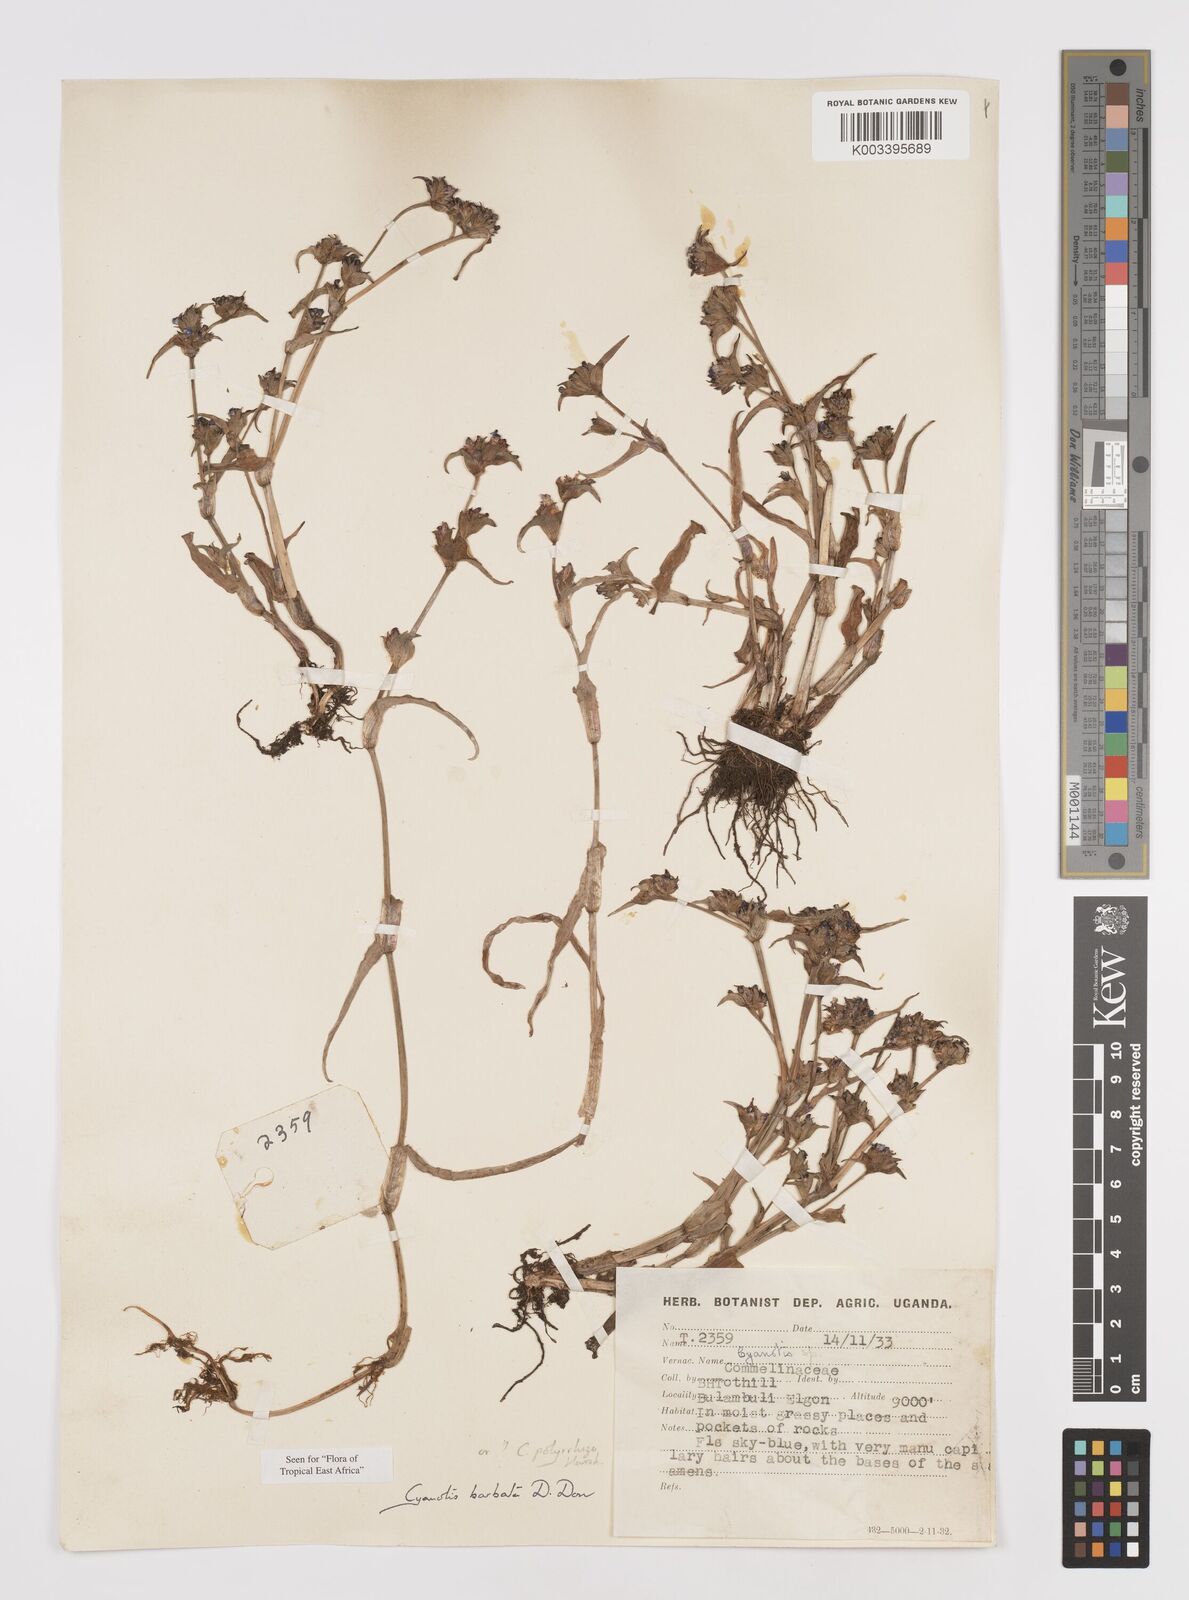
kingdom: Plantae
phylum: Tracheophyta
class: Liliopsida
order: Commelinales
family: Commelinaceae
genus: Cyanotis
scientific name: Cyanotis vaga
